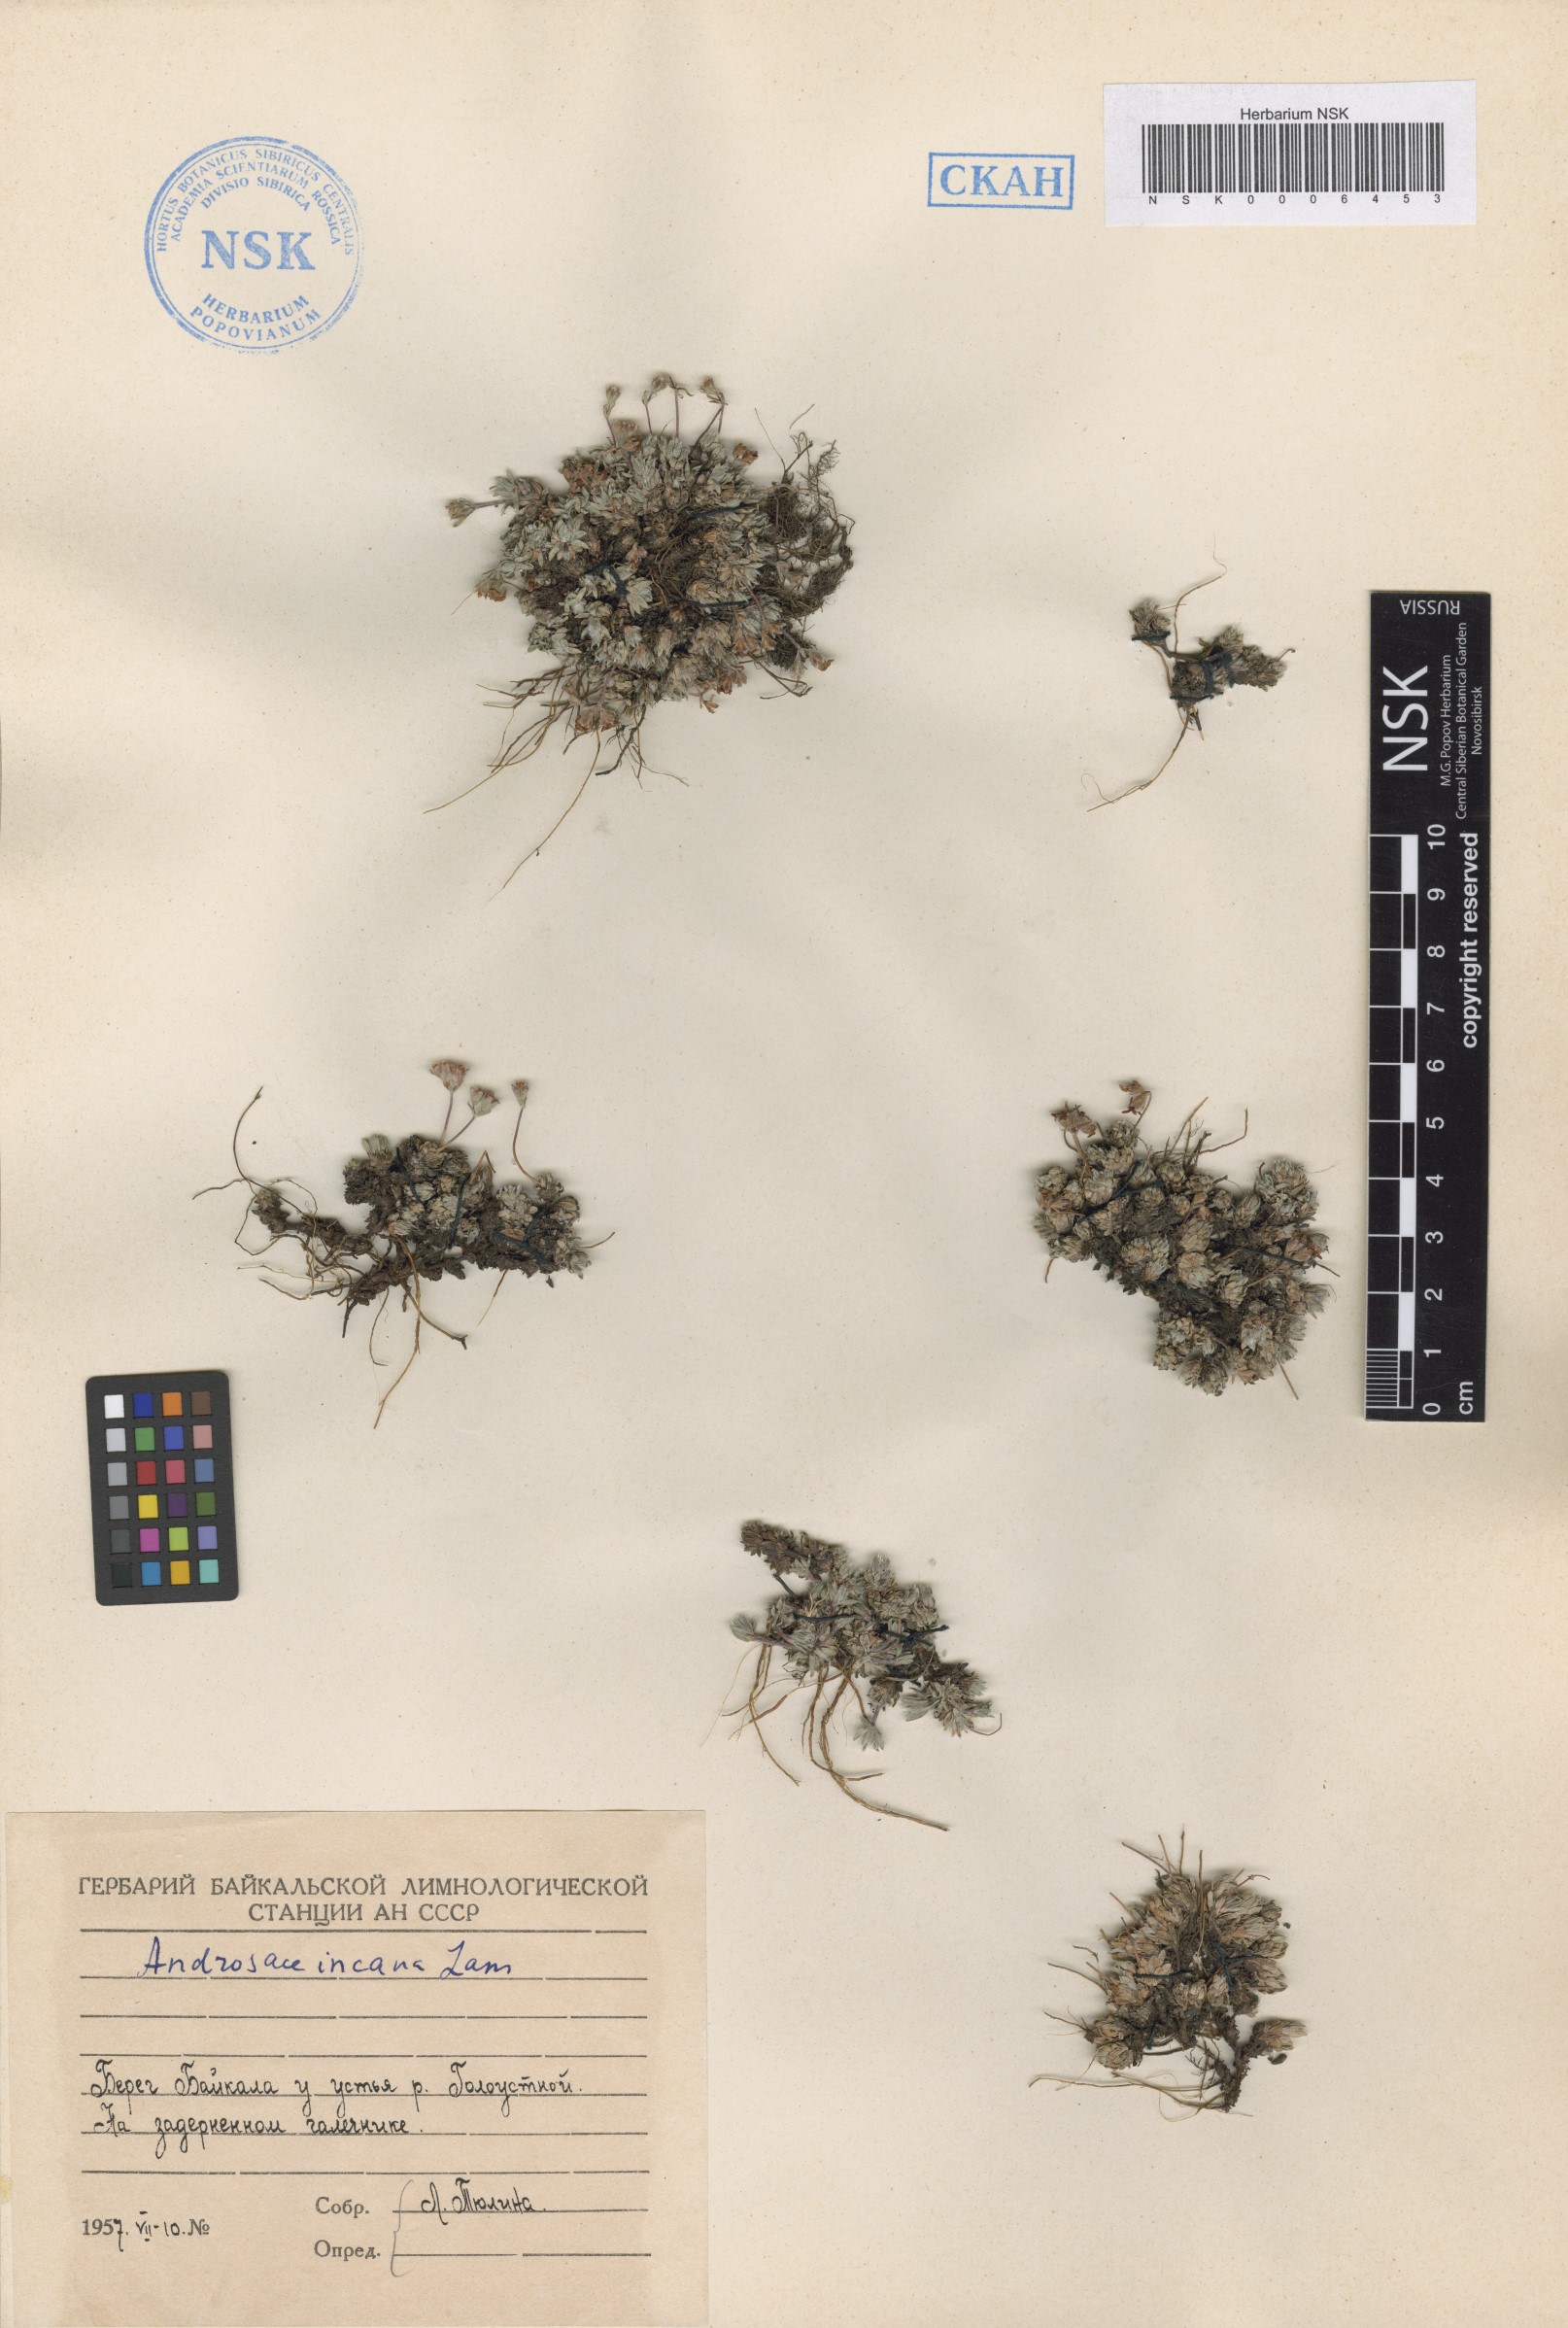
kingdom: Plantae
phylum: Tracheophyta
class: Magnoliopsida
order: Ericales
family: Primulaceae
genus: Androsace
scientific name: Androsace incana
